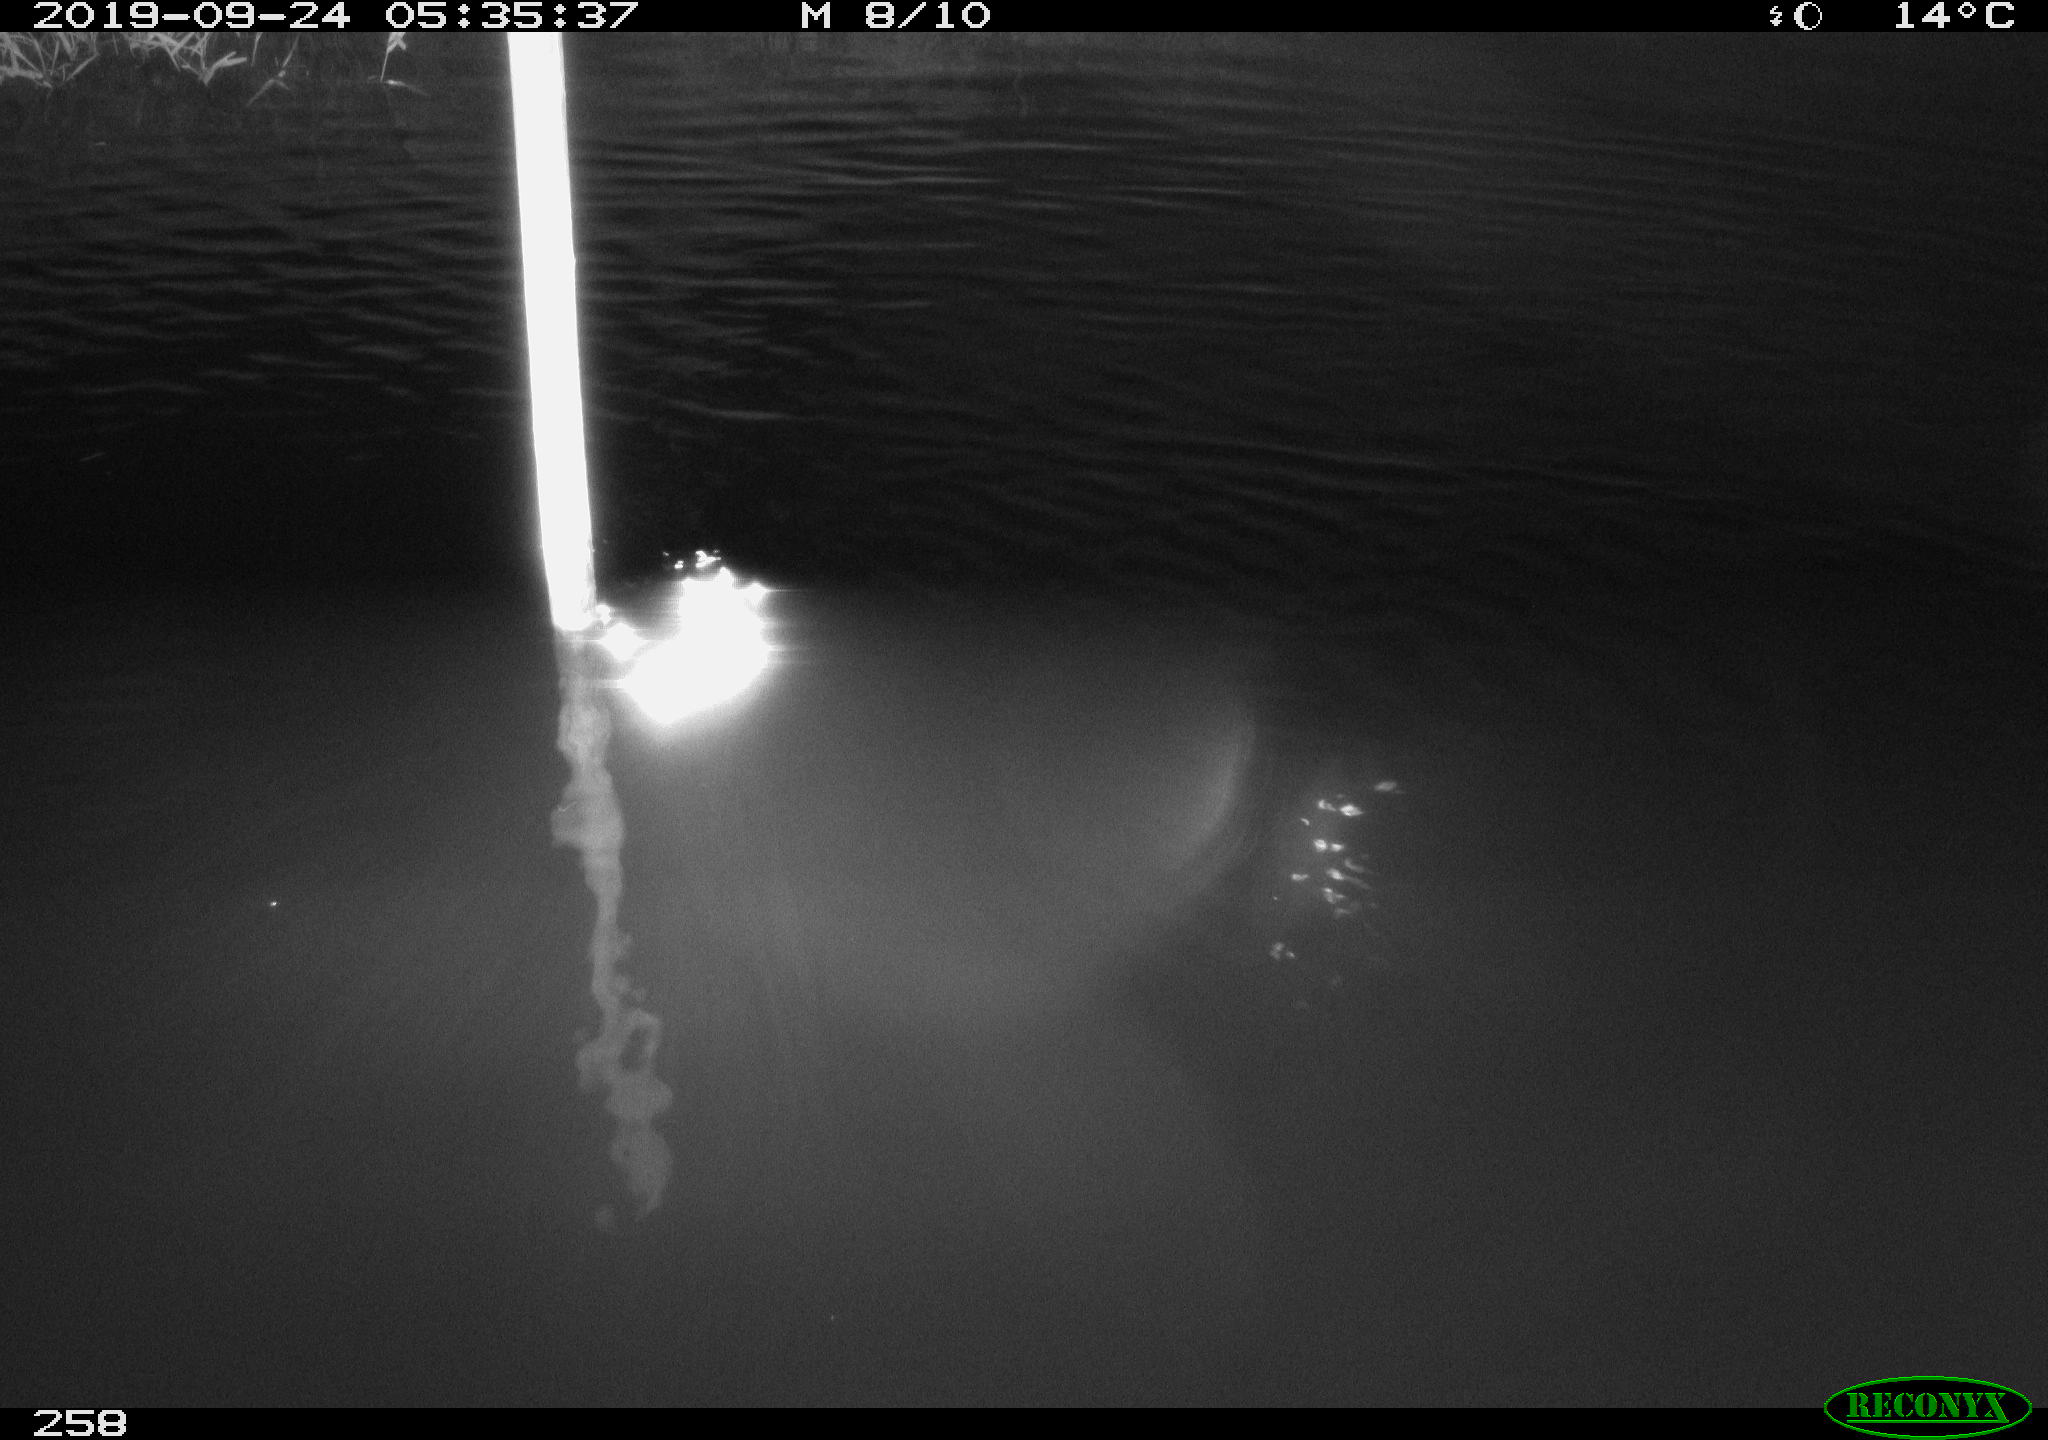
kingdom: Animalia
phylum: Chordata
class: Aves
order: Anseriformes
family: Anatidae
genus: Anas
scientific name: Anas platyrhynchos
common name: Mallard
